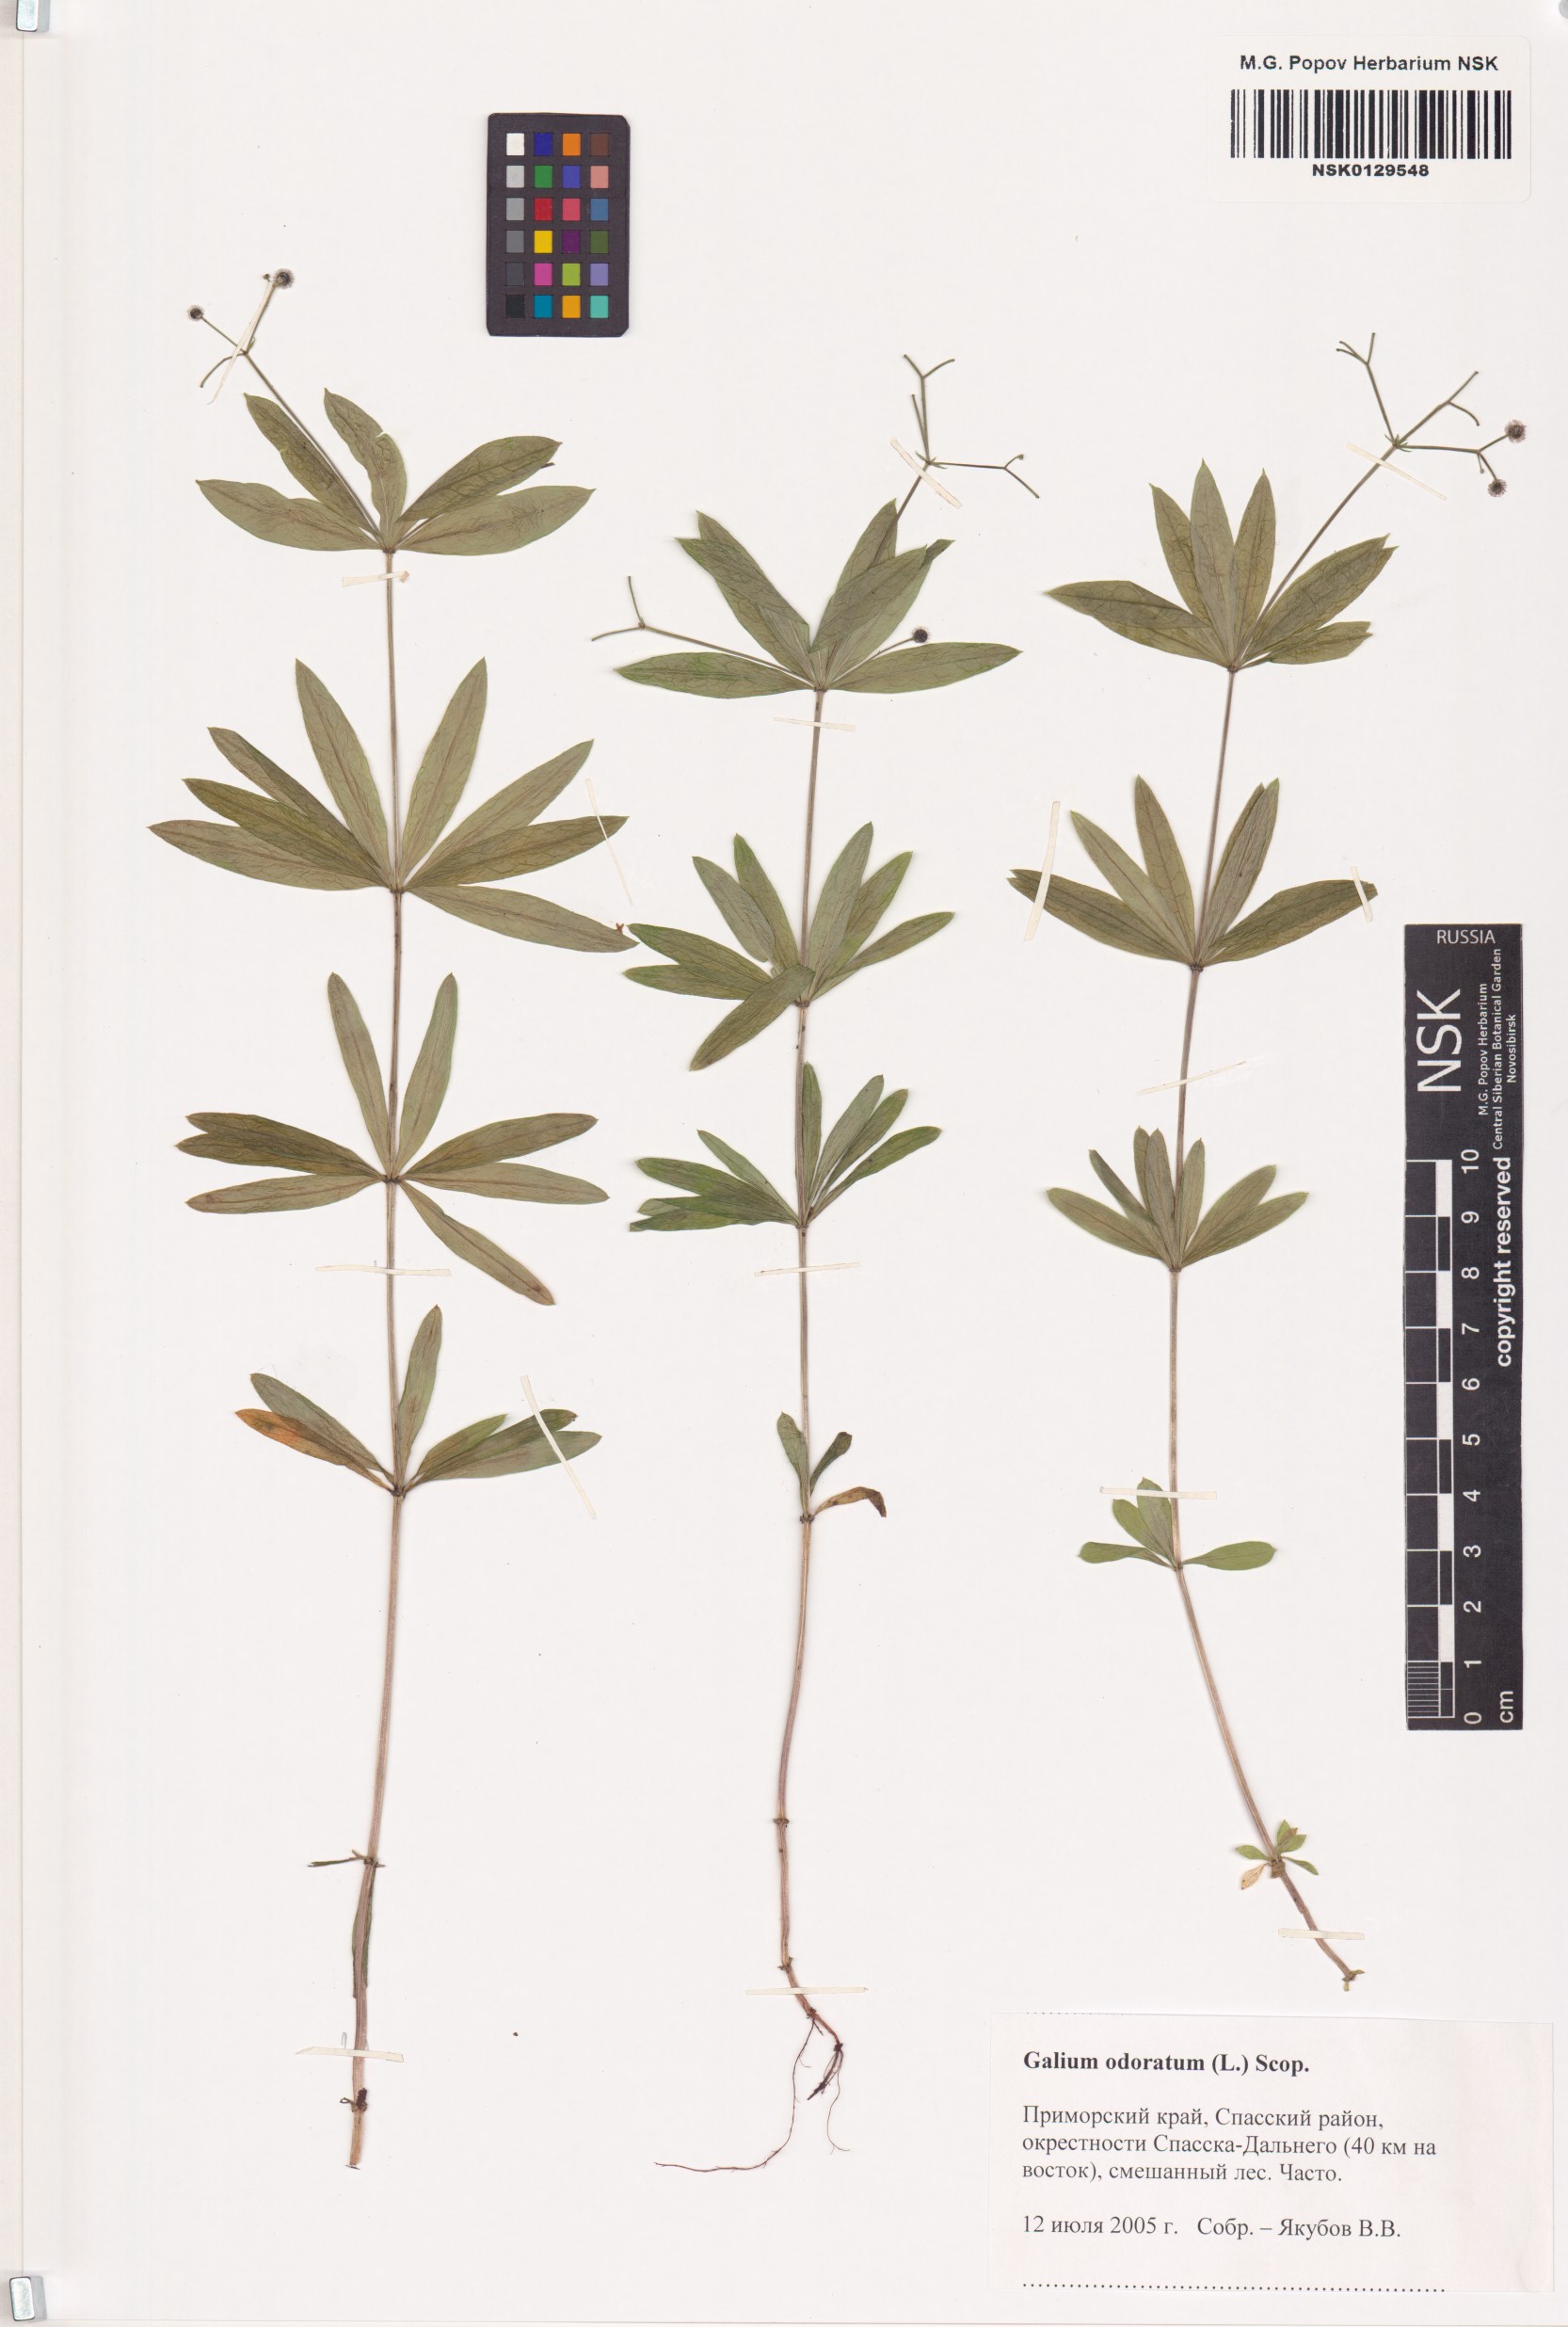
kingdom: Plantae
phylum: Tracheophyta
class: Magnoliopsida
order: Gentianales
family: Rubiaceae
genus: Galium
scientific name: Galium odoratum
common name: Sweet woodruff
